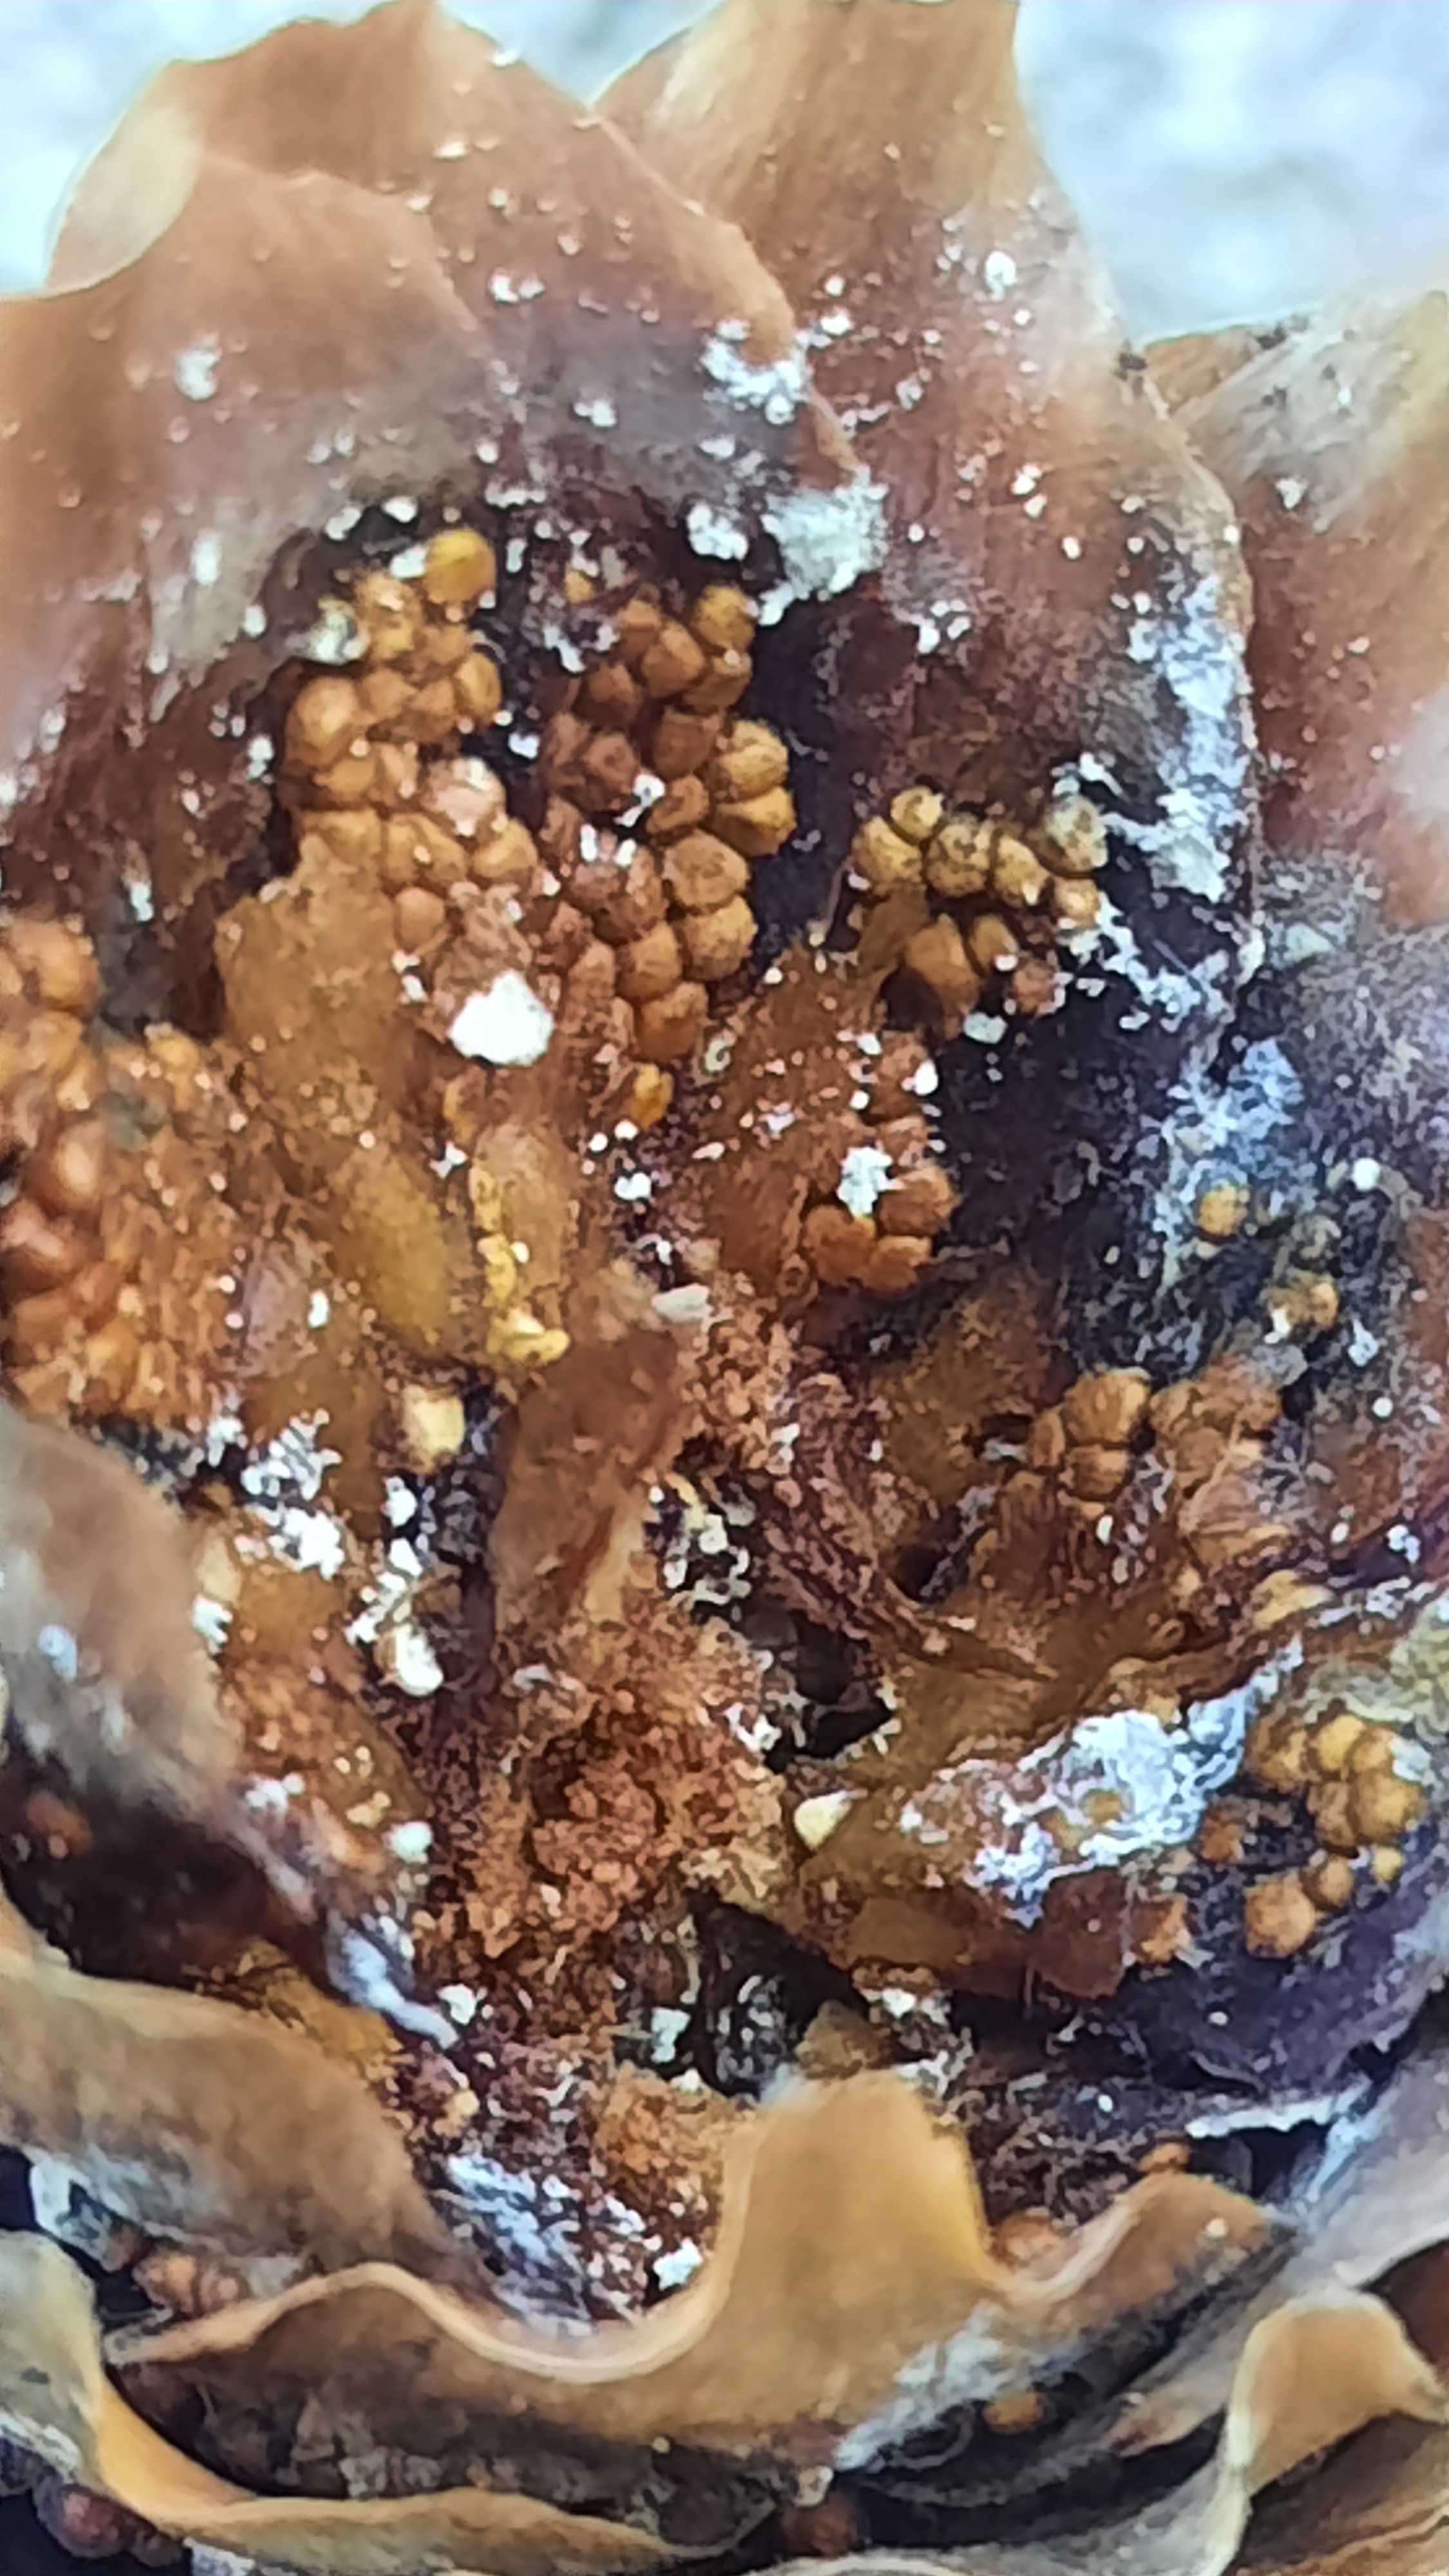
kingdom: Fungi
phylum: Basidiomycota
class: Pucciniomycetes
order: Pucciniales
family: Pucciniastraceae
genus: Thekopsora
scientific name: Thekopsora areolata
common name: grankogle-nålerust
